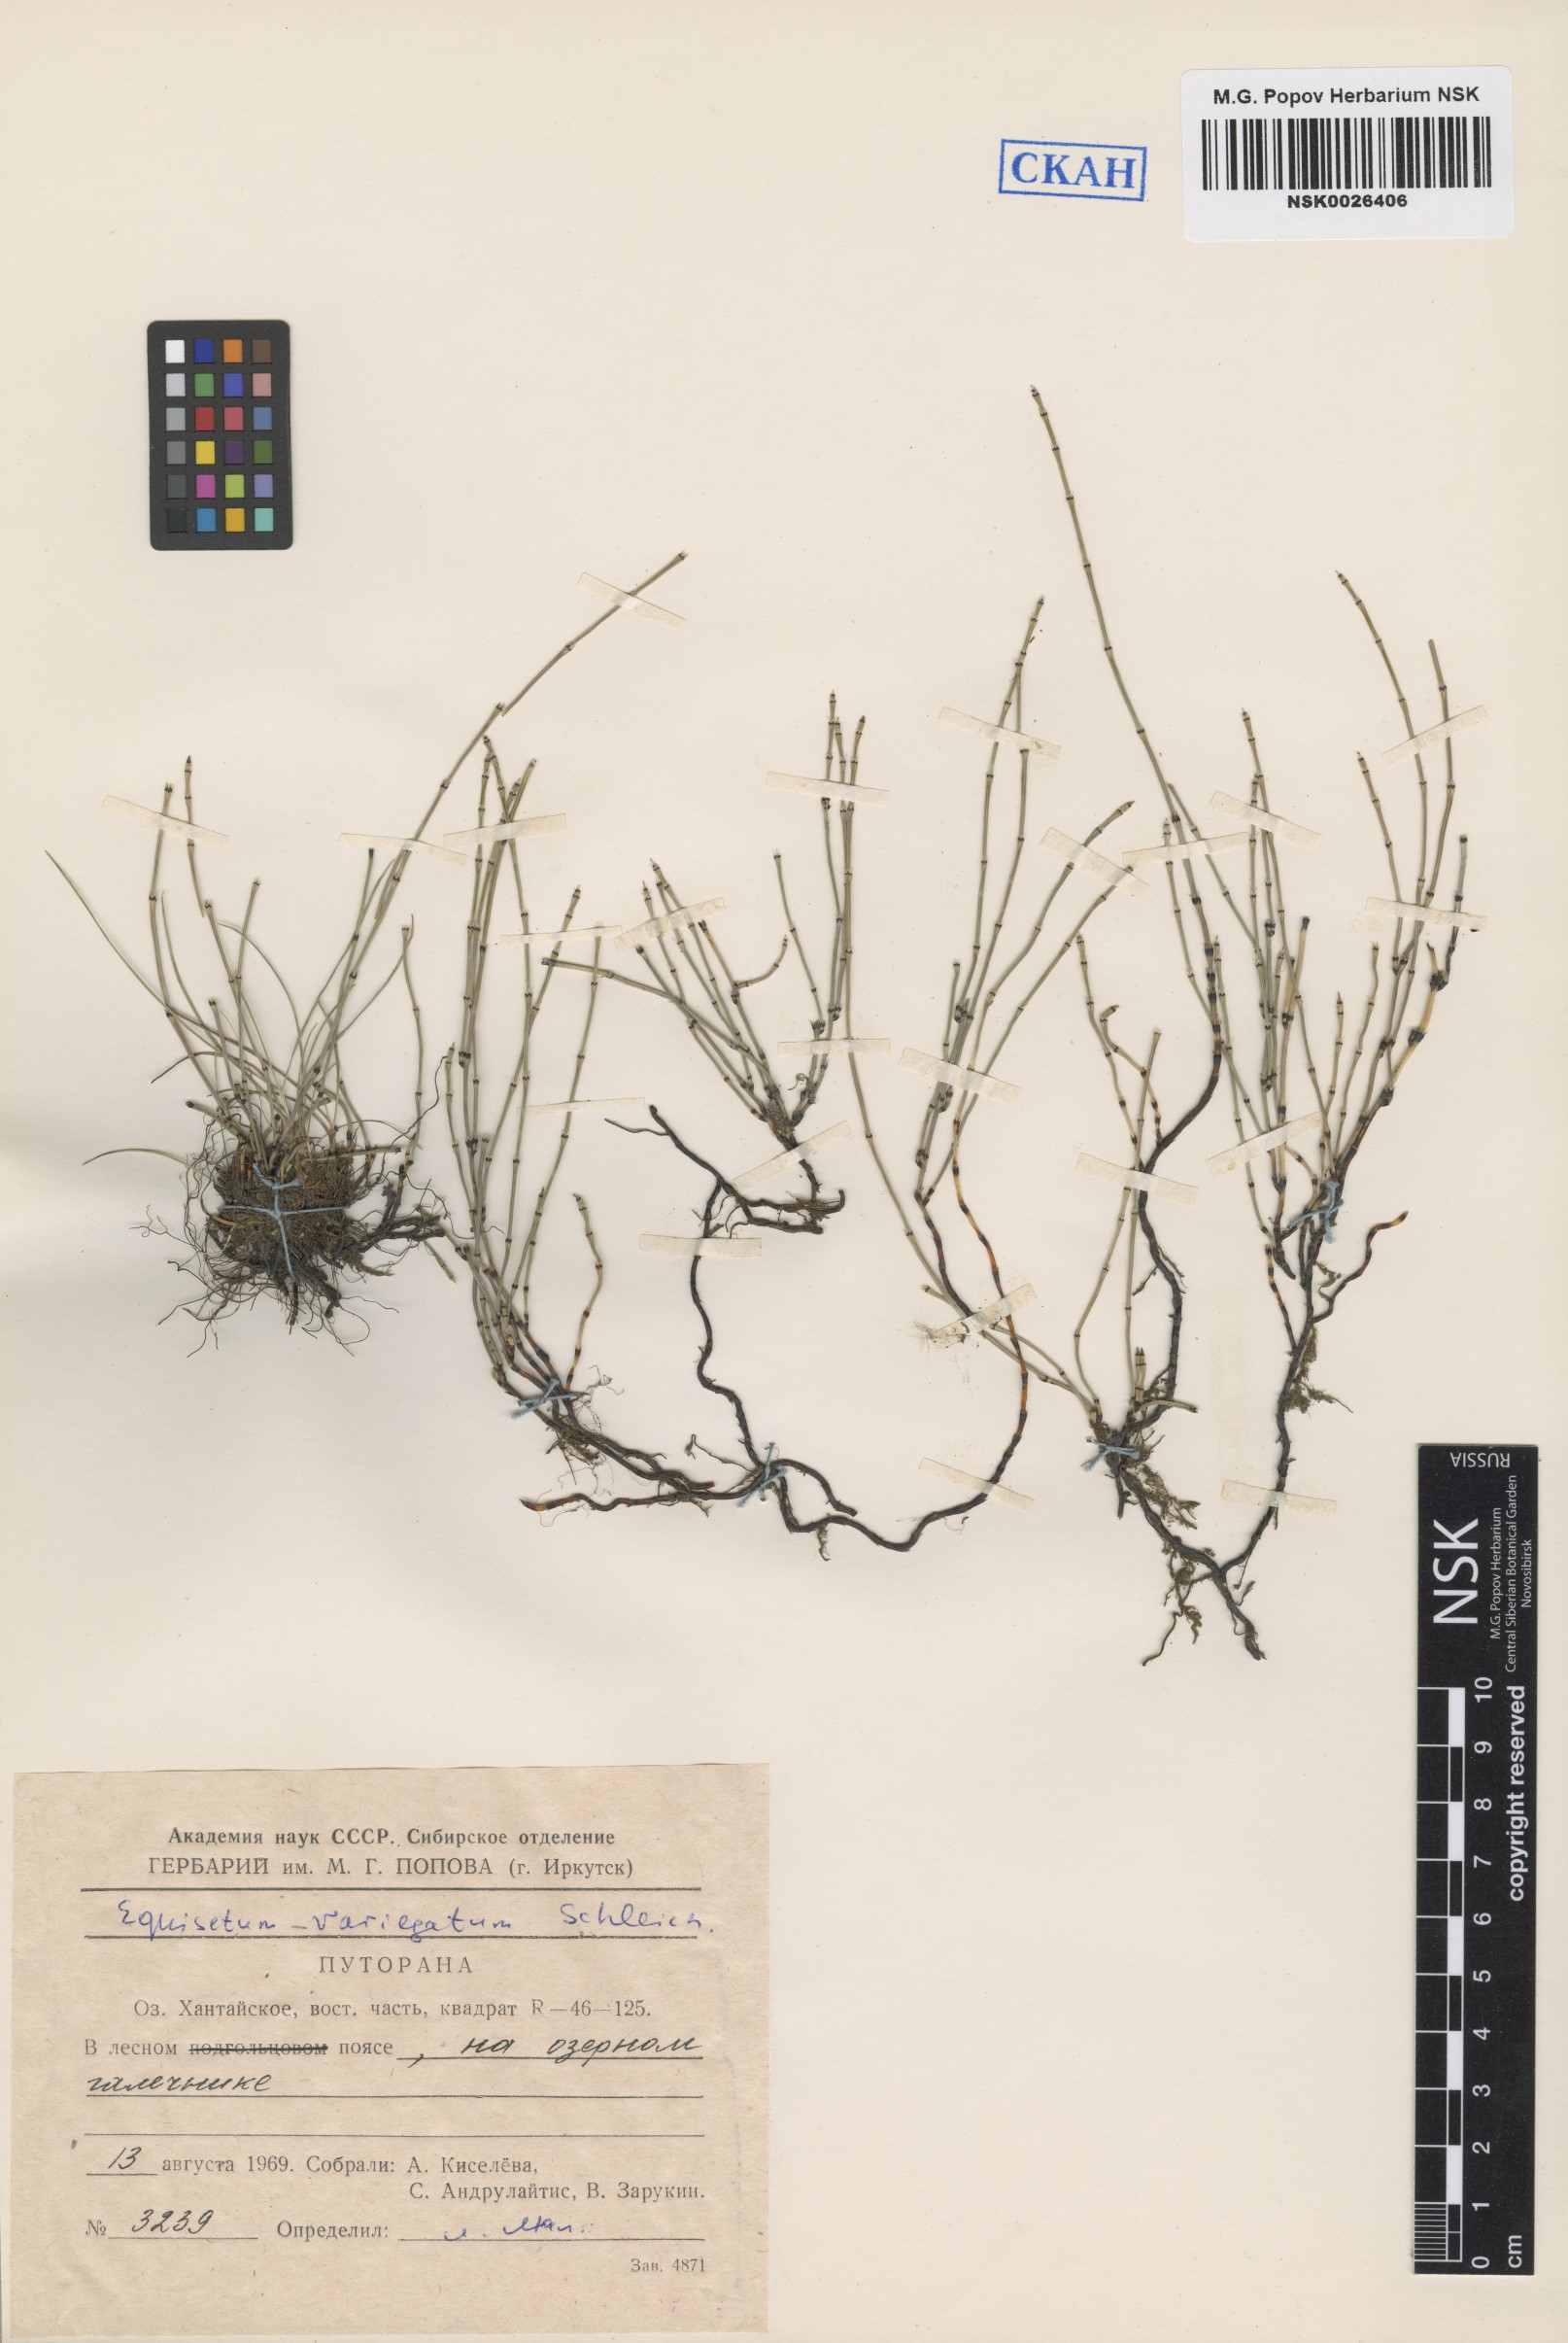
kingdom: Plantae
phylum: Tracheophyta
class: Polypodiopsida
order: Equisetales
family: Equisetaceae
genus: Equisetum
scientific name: Equisetum variegatum
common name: Variegated horsetail
